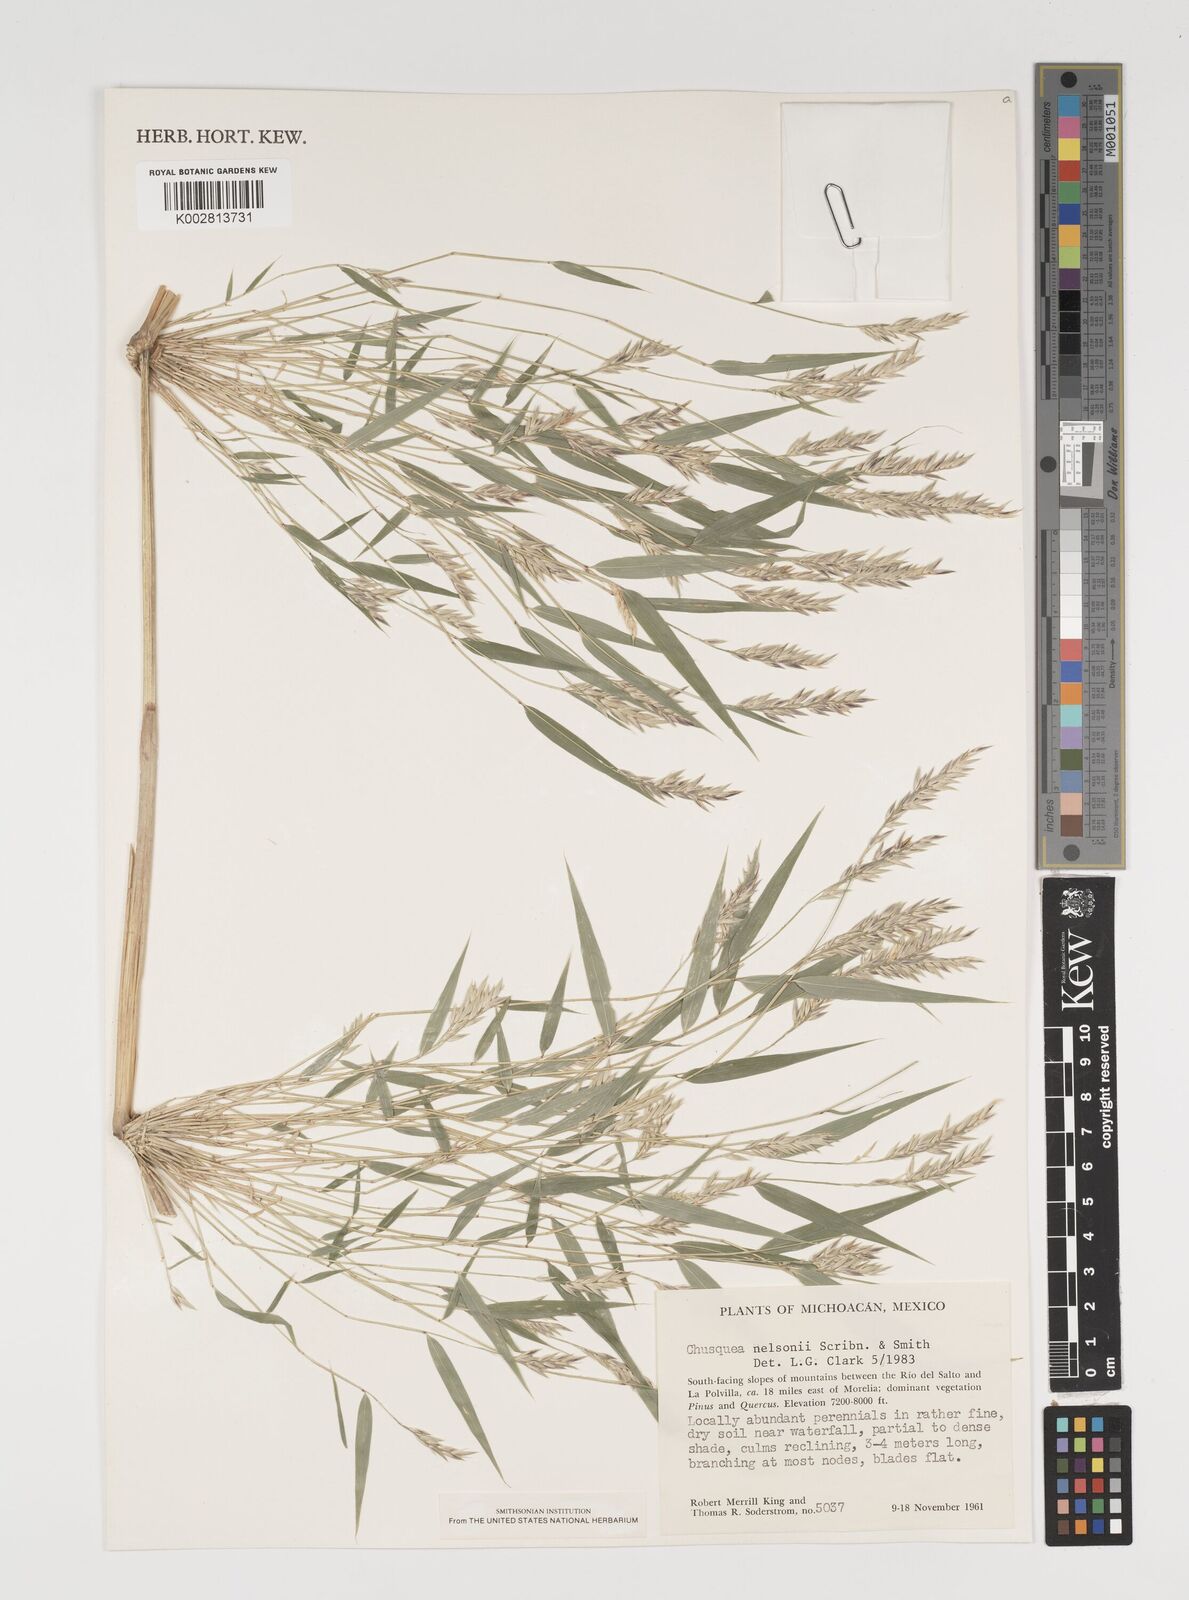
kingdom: Plantae
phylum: Tracheophyta
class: Liliopsida
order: Poales
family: Poaceae
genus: Chusquea
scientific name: Chusquea nelsonii
